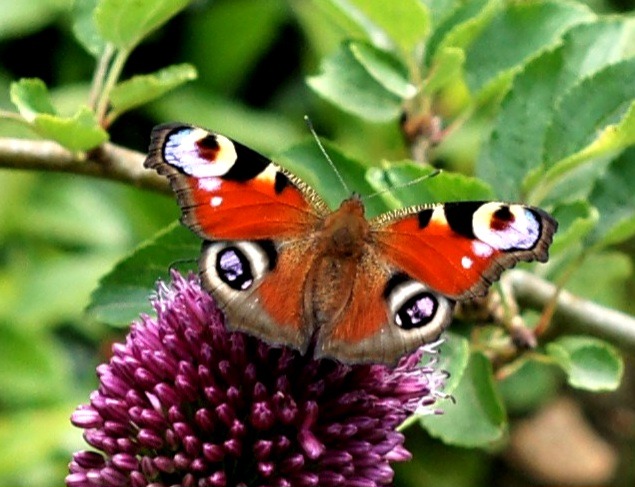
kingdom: Animalia
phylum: Arthropoda
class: Insecta
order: Lepidoptera
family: Nymphalidae
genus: Aglais
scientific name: Aglais io
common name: Dagpåfugleøje
